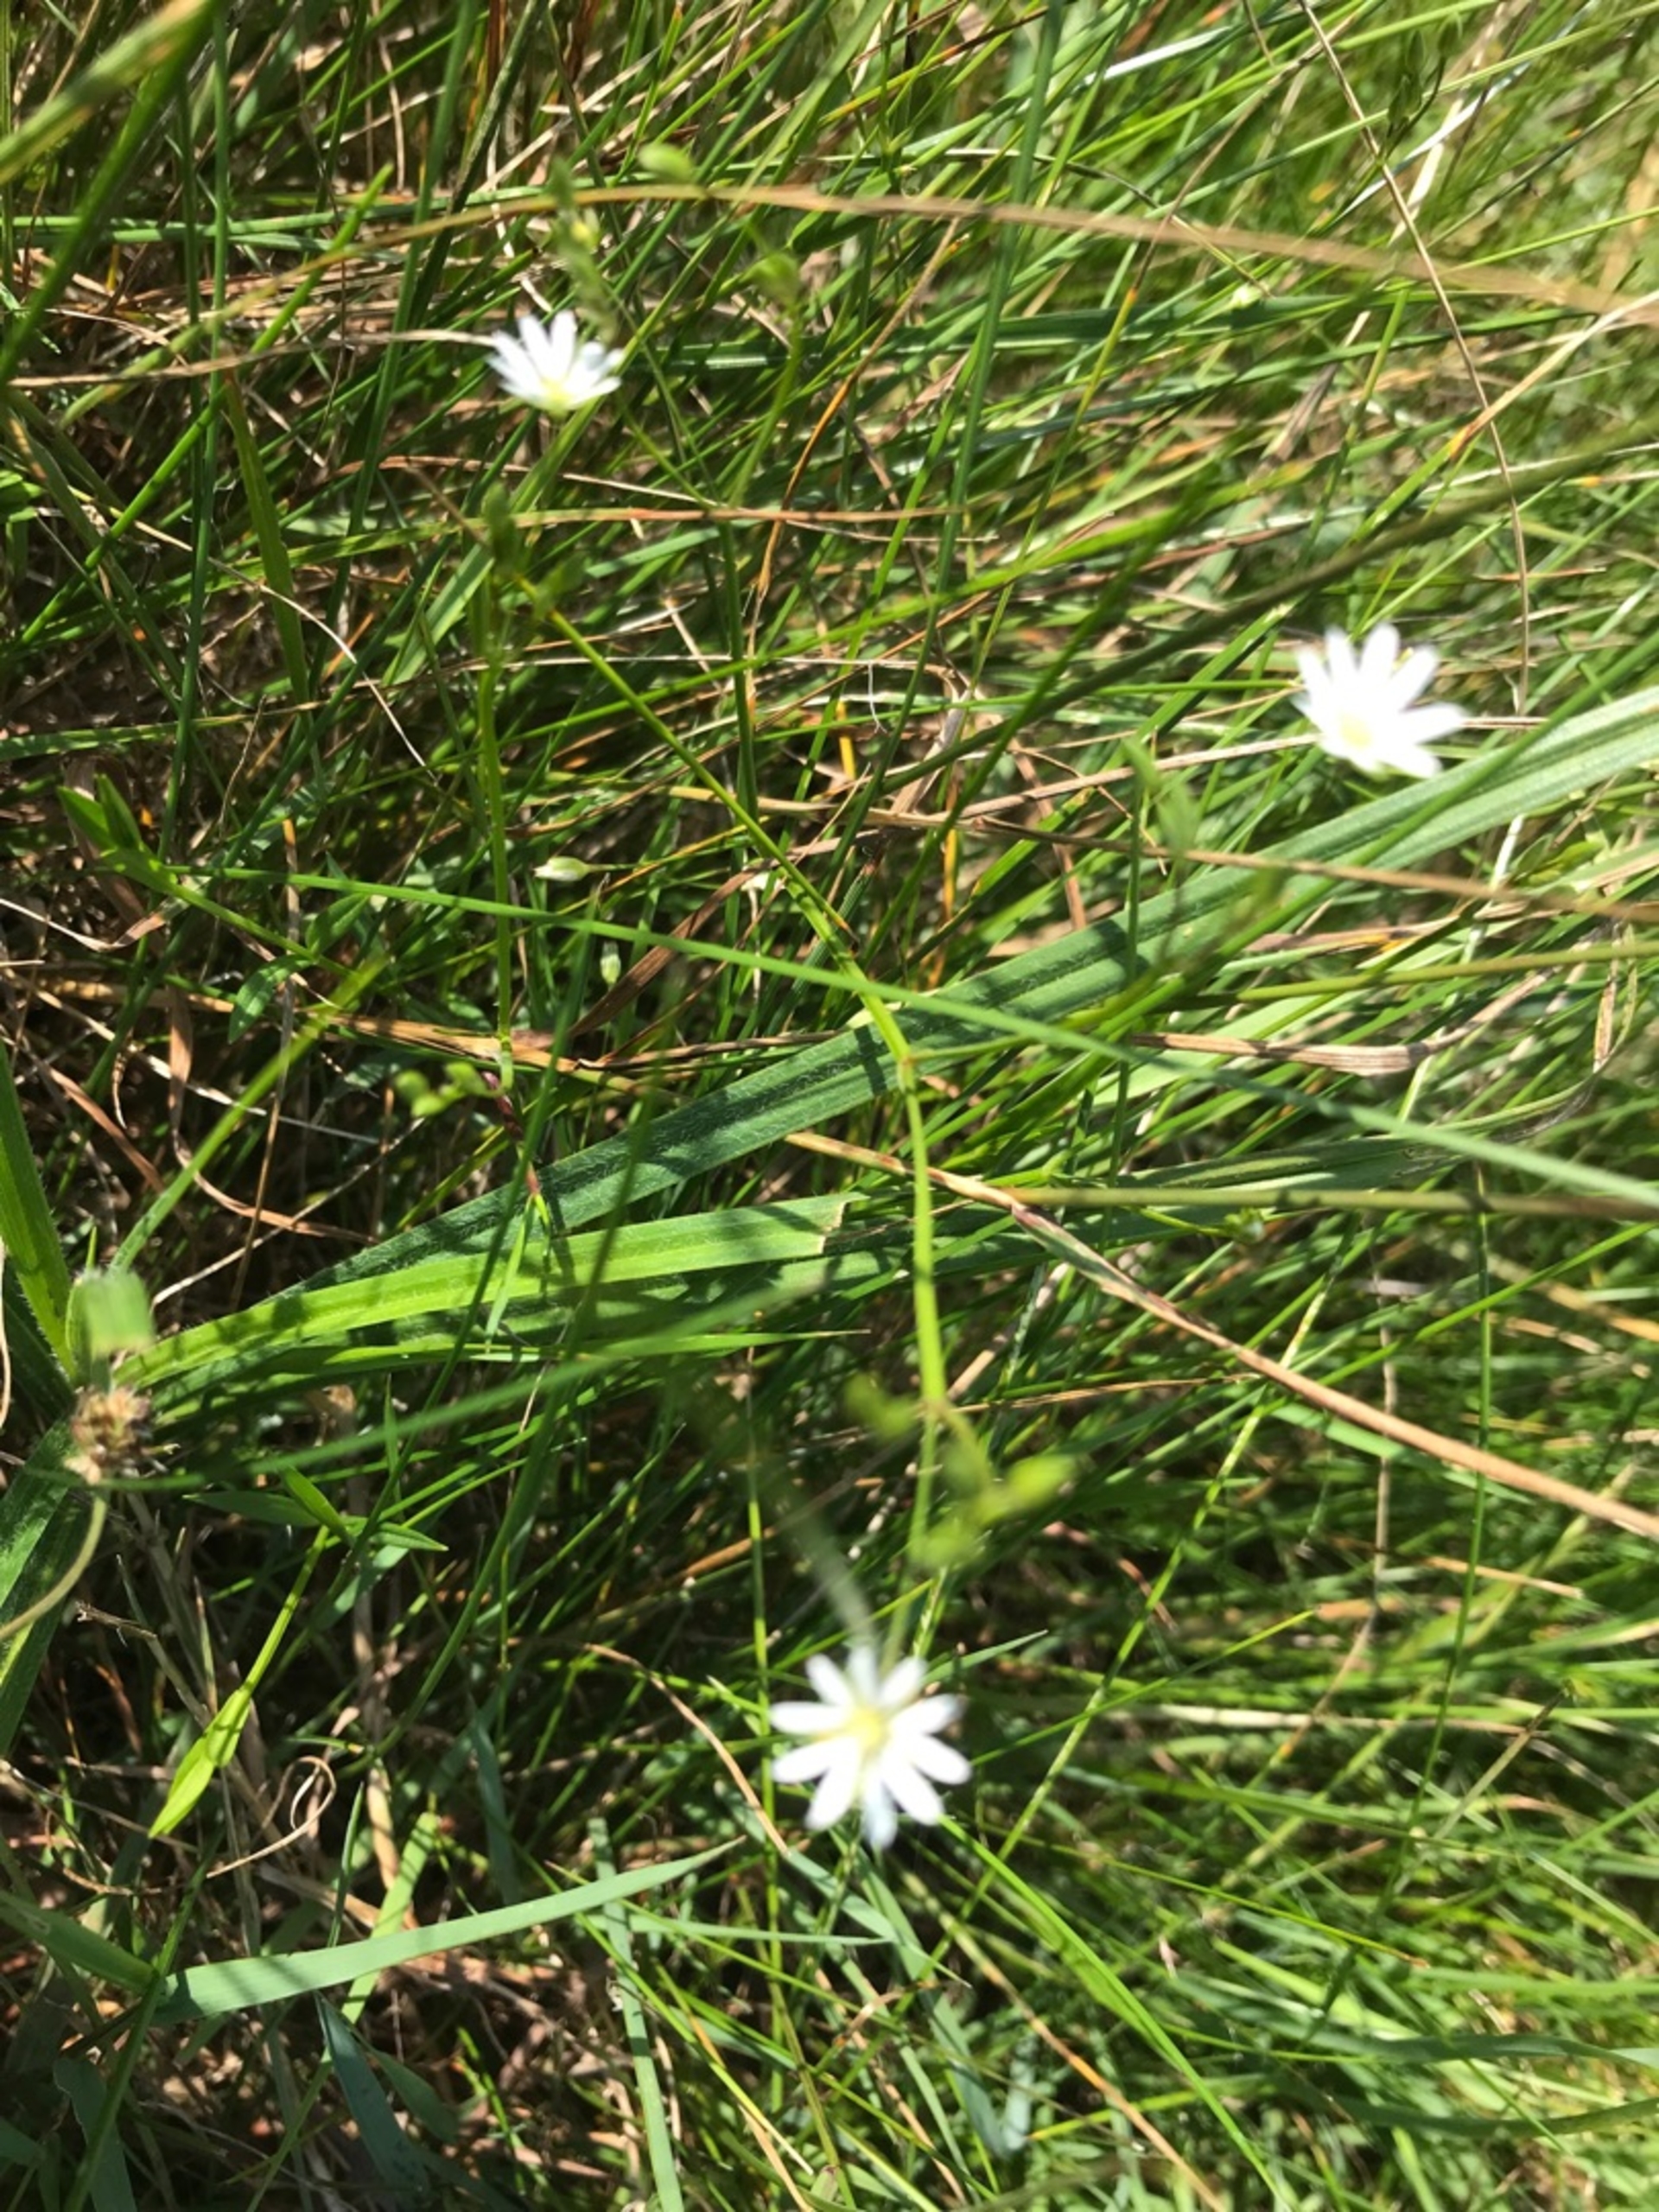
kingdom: Plantae
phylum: Tracheophyta
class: Magnoliopsida
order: Caryophyllales
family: Caryophyllaceae
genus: Stellaria
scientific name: Stellaria graminea
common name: Græsbladet fladstjerne
